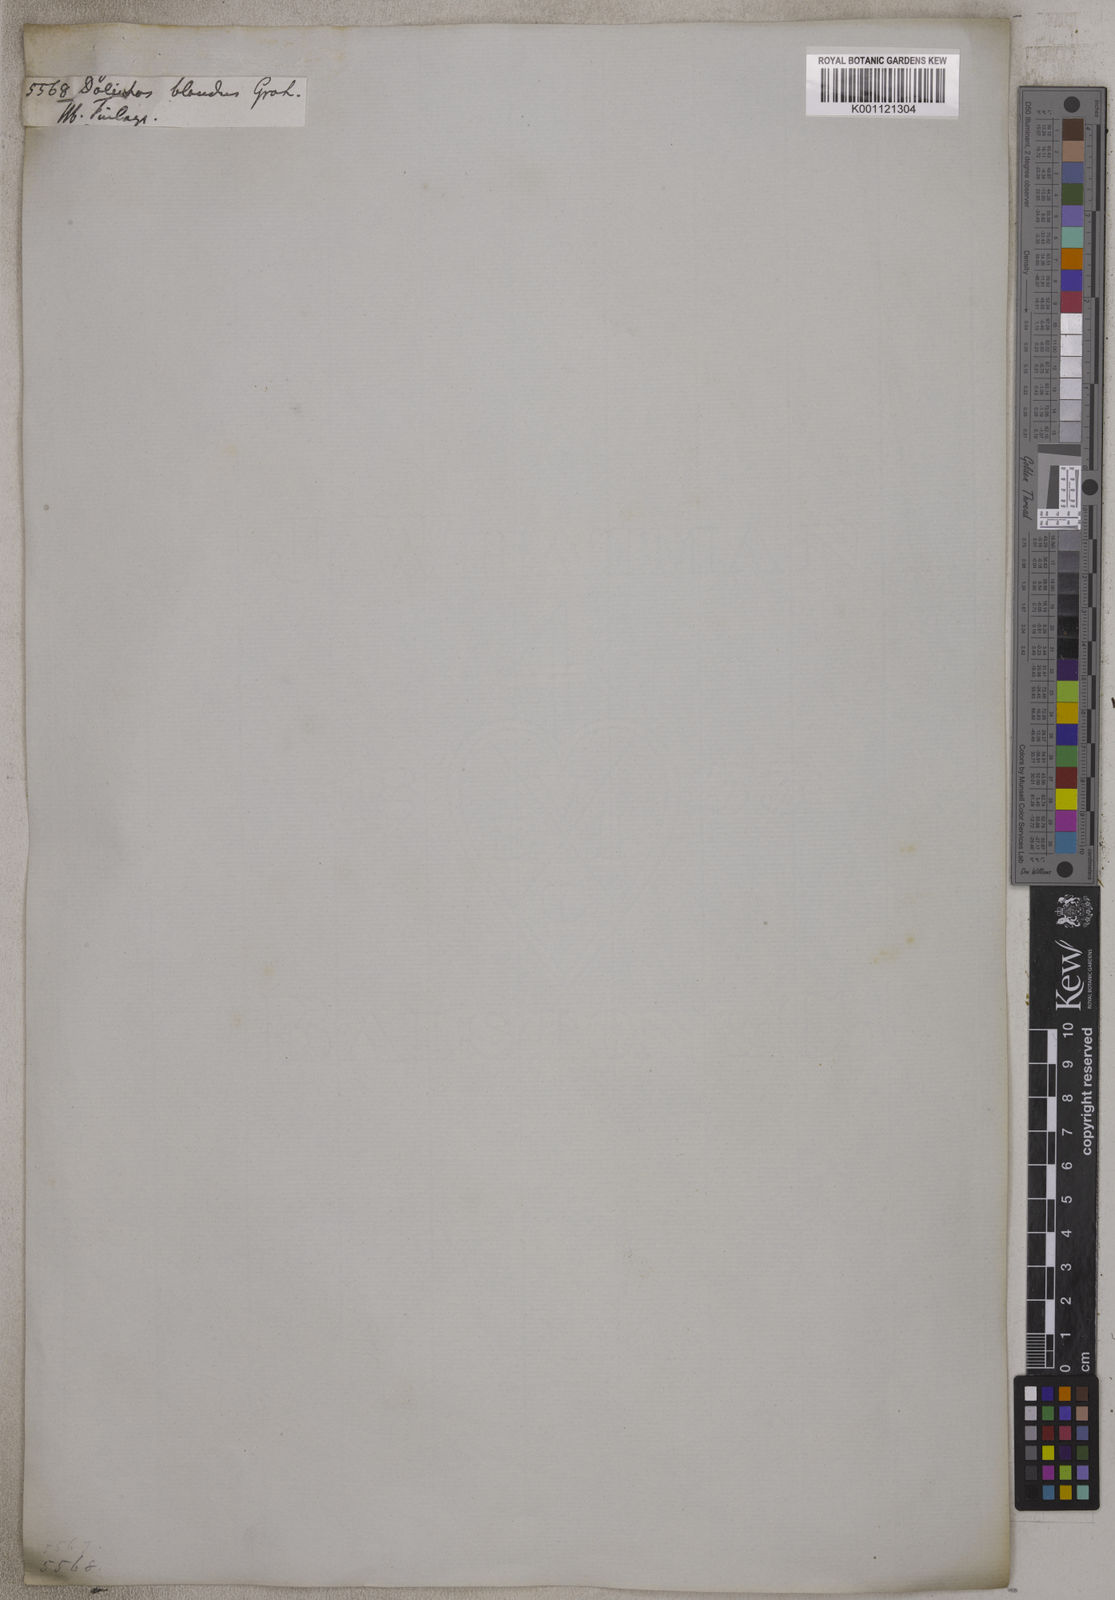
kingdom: Plantae
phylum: Tracheophyta
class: Magnoliopsida
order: Fabales
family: Fabaceae
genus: Cajanus
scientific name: Cajanus mollis
